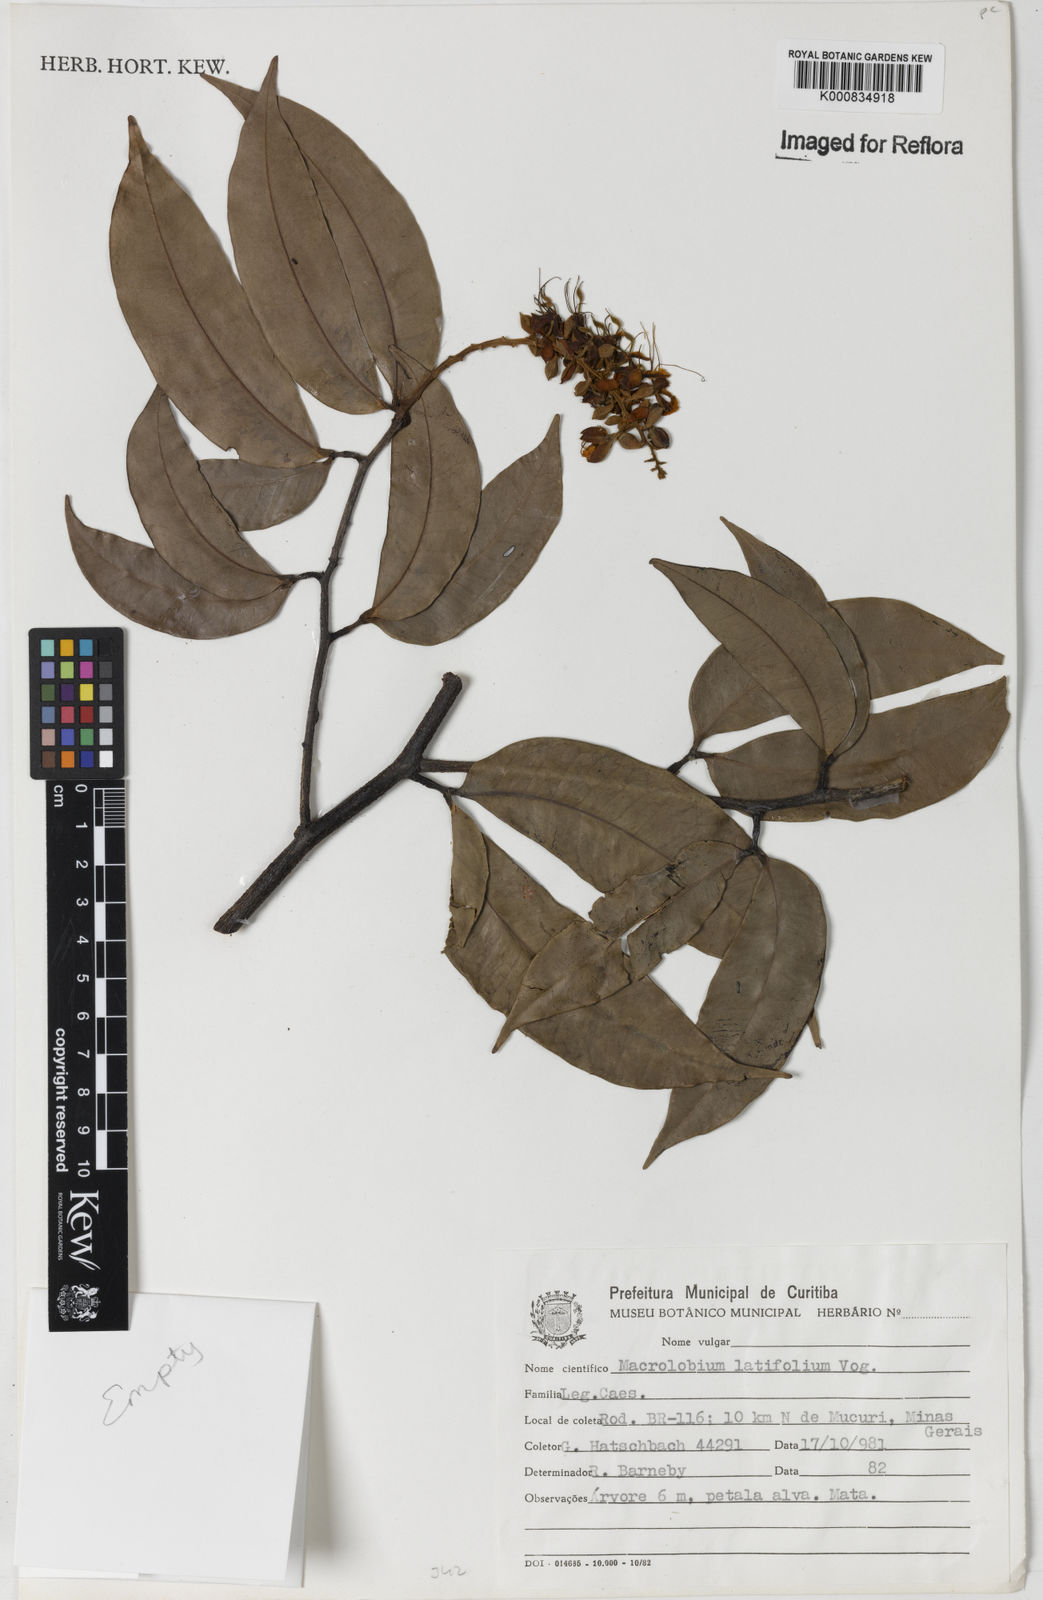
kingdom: Plantae
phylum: Tracheophyta
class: Magnoliopsida
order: Fabales
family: Fabaceae
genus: Macrolobium
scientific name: Macrolobium latifolium
